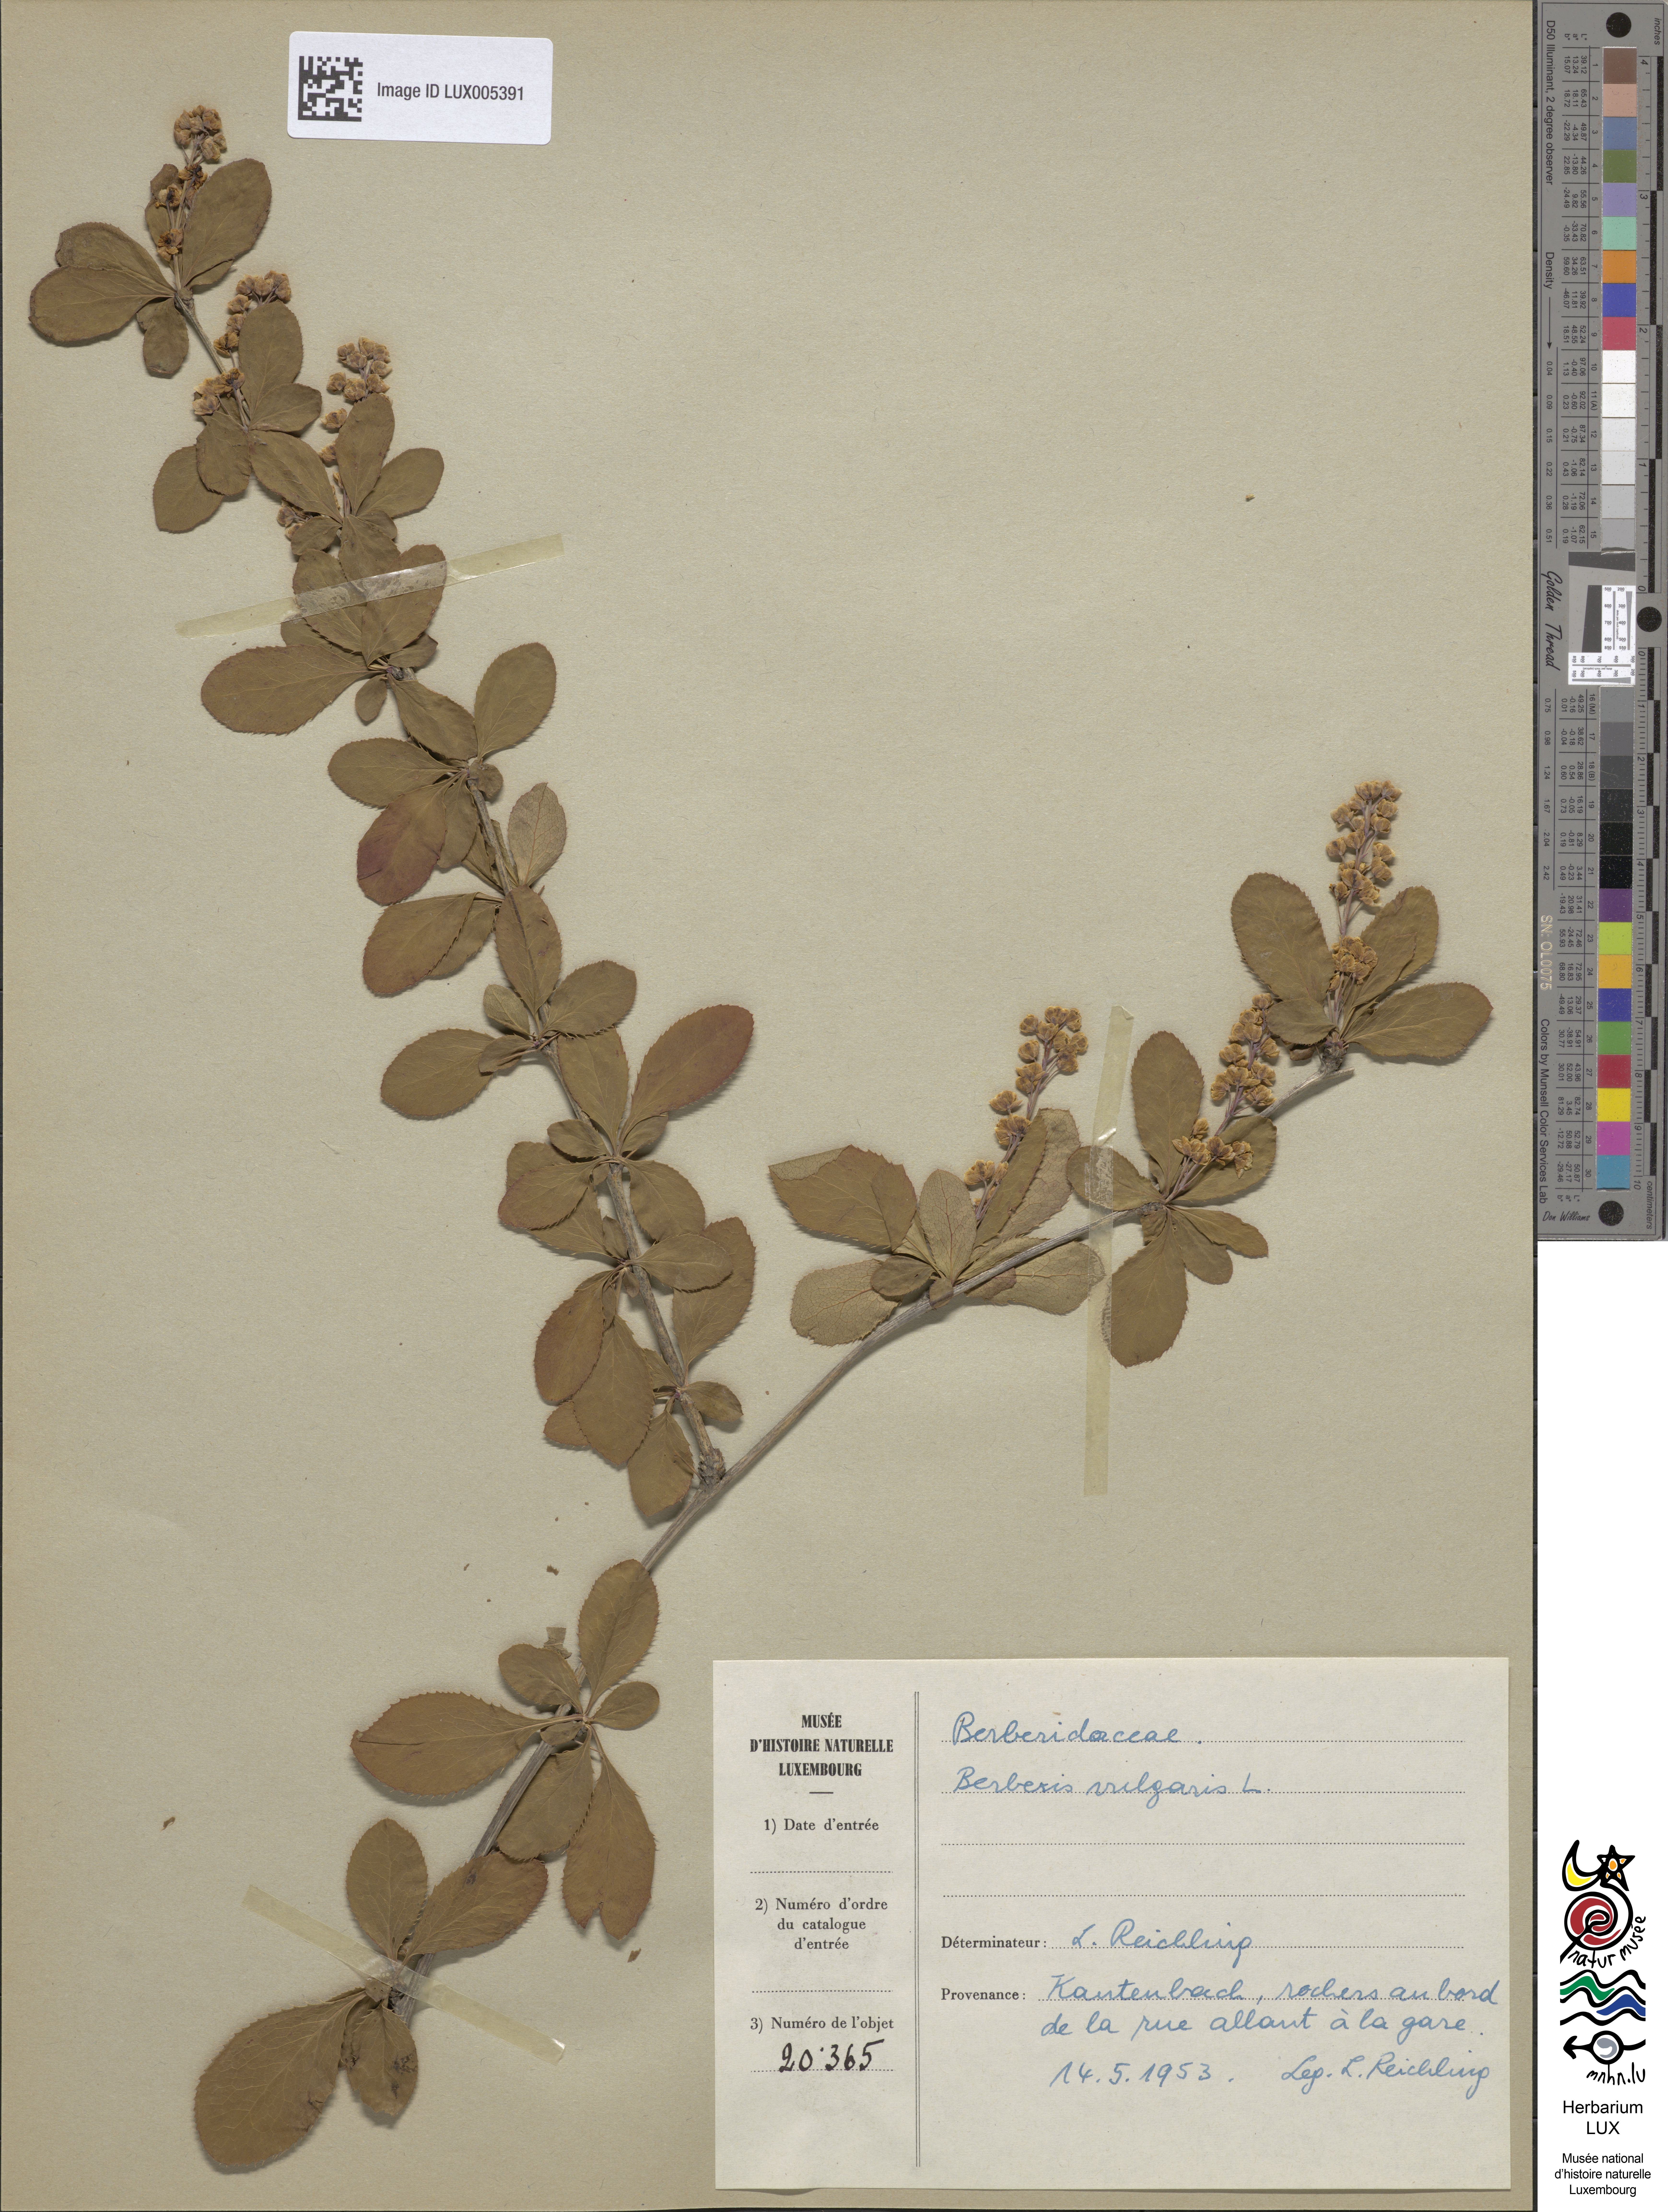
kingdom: Plantae
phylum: Tracheophyta
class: Magnoliopsida
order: Ranunculales
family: Berberidaceae
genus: Berberis
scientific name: Berberis vulgaris
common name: Barberry
